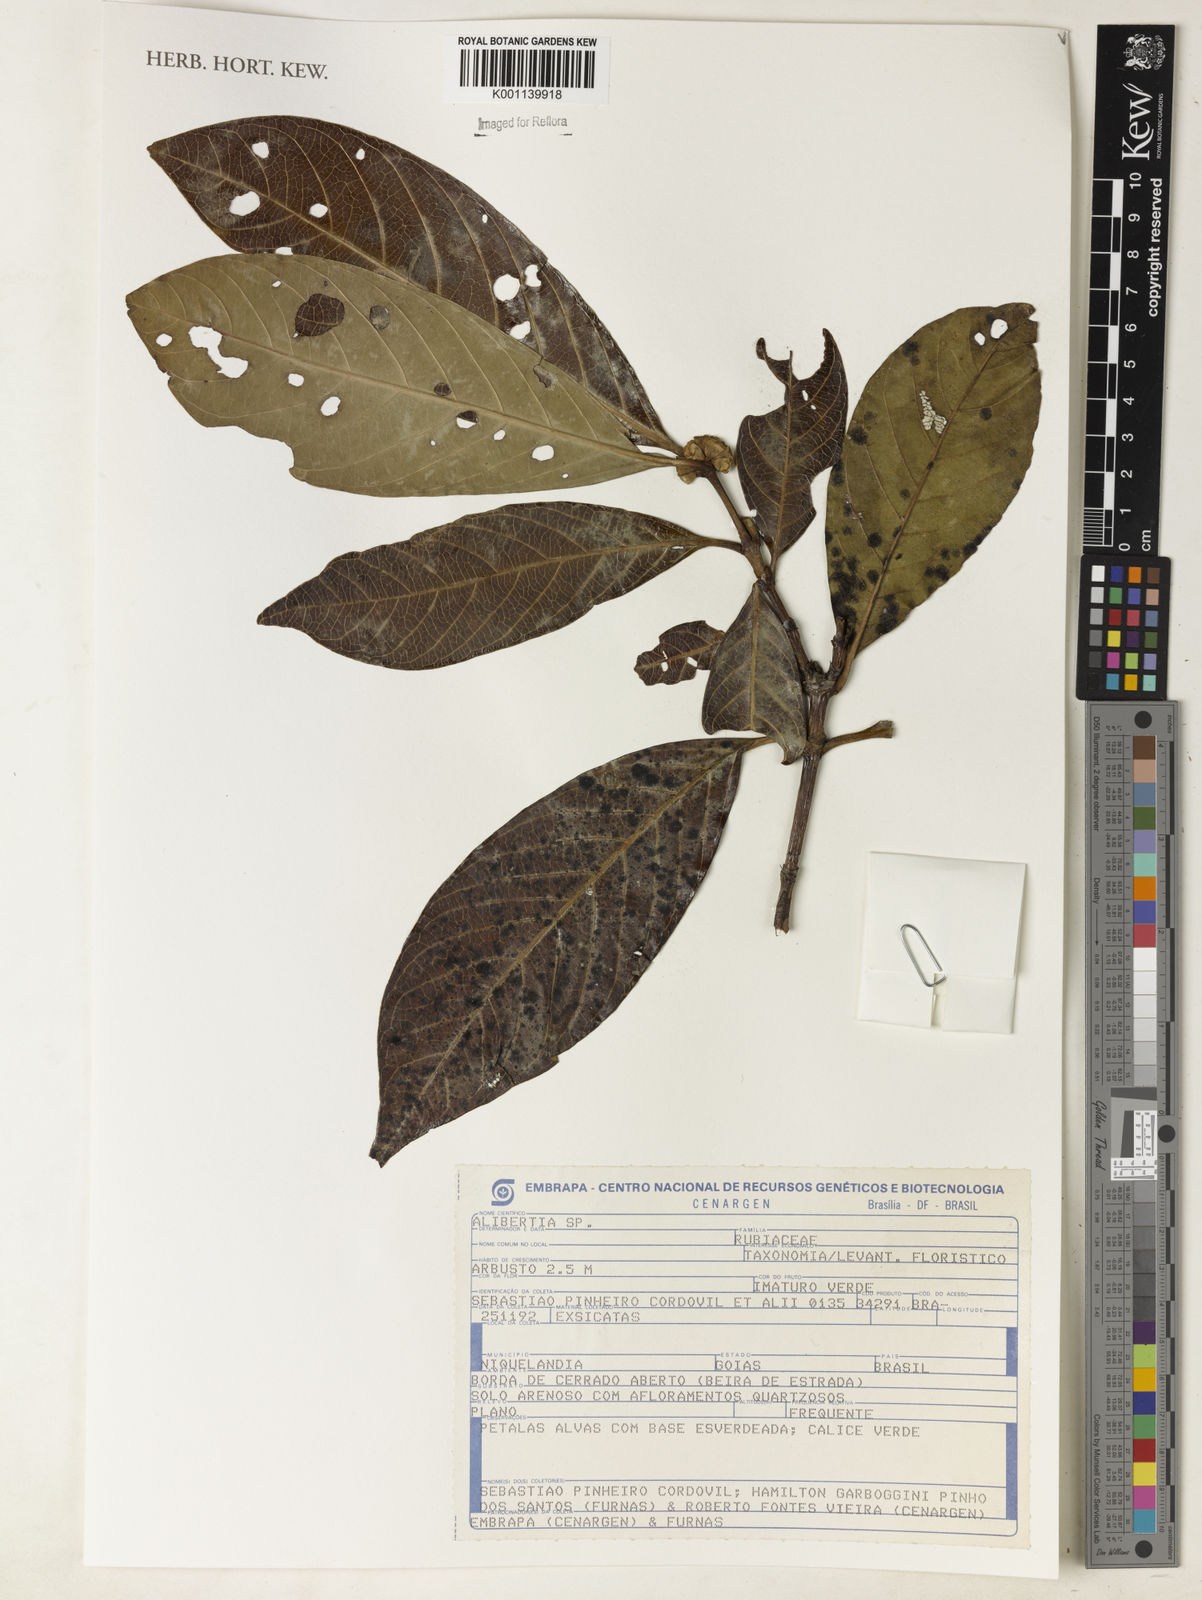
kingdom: Plantae
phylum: Tracheophyta
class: Magnoliopsida
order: Gentianales
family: Rubiaceae
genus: Alibertia
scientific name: Alibertia
